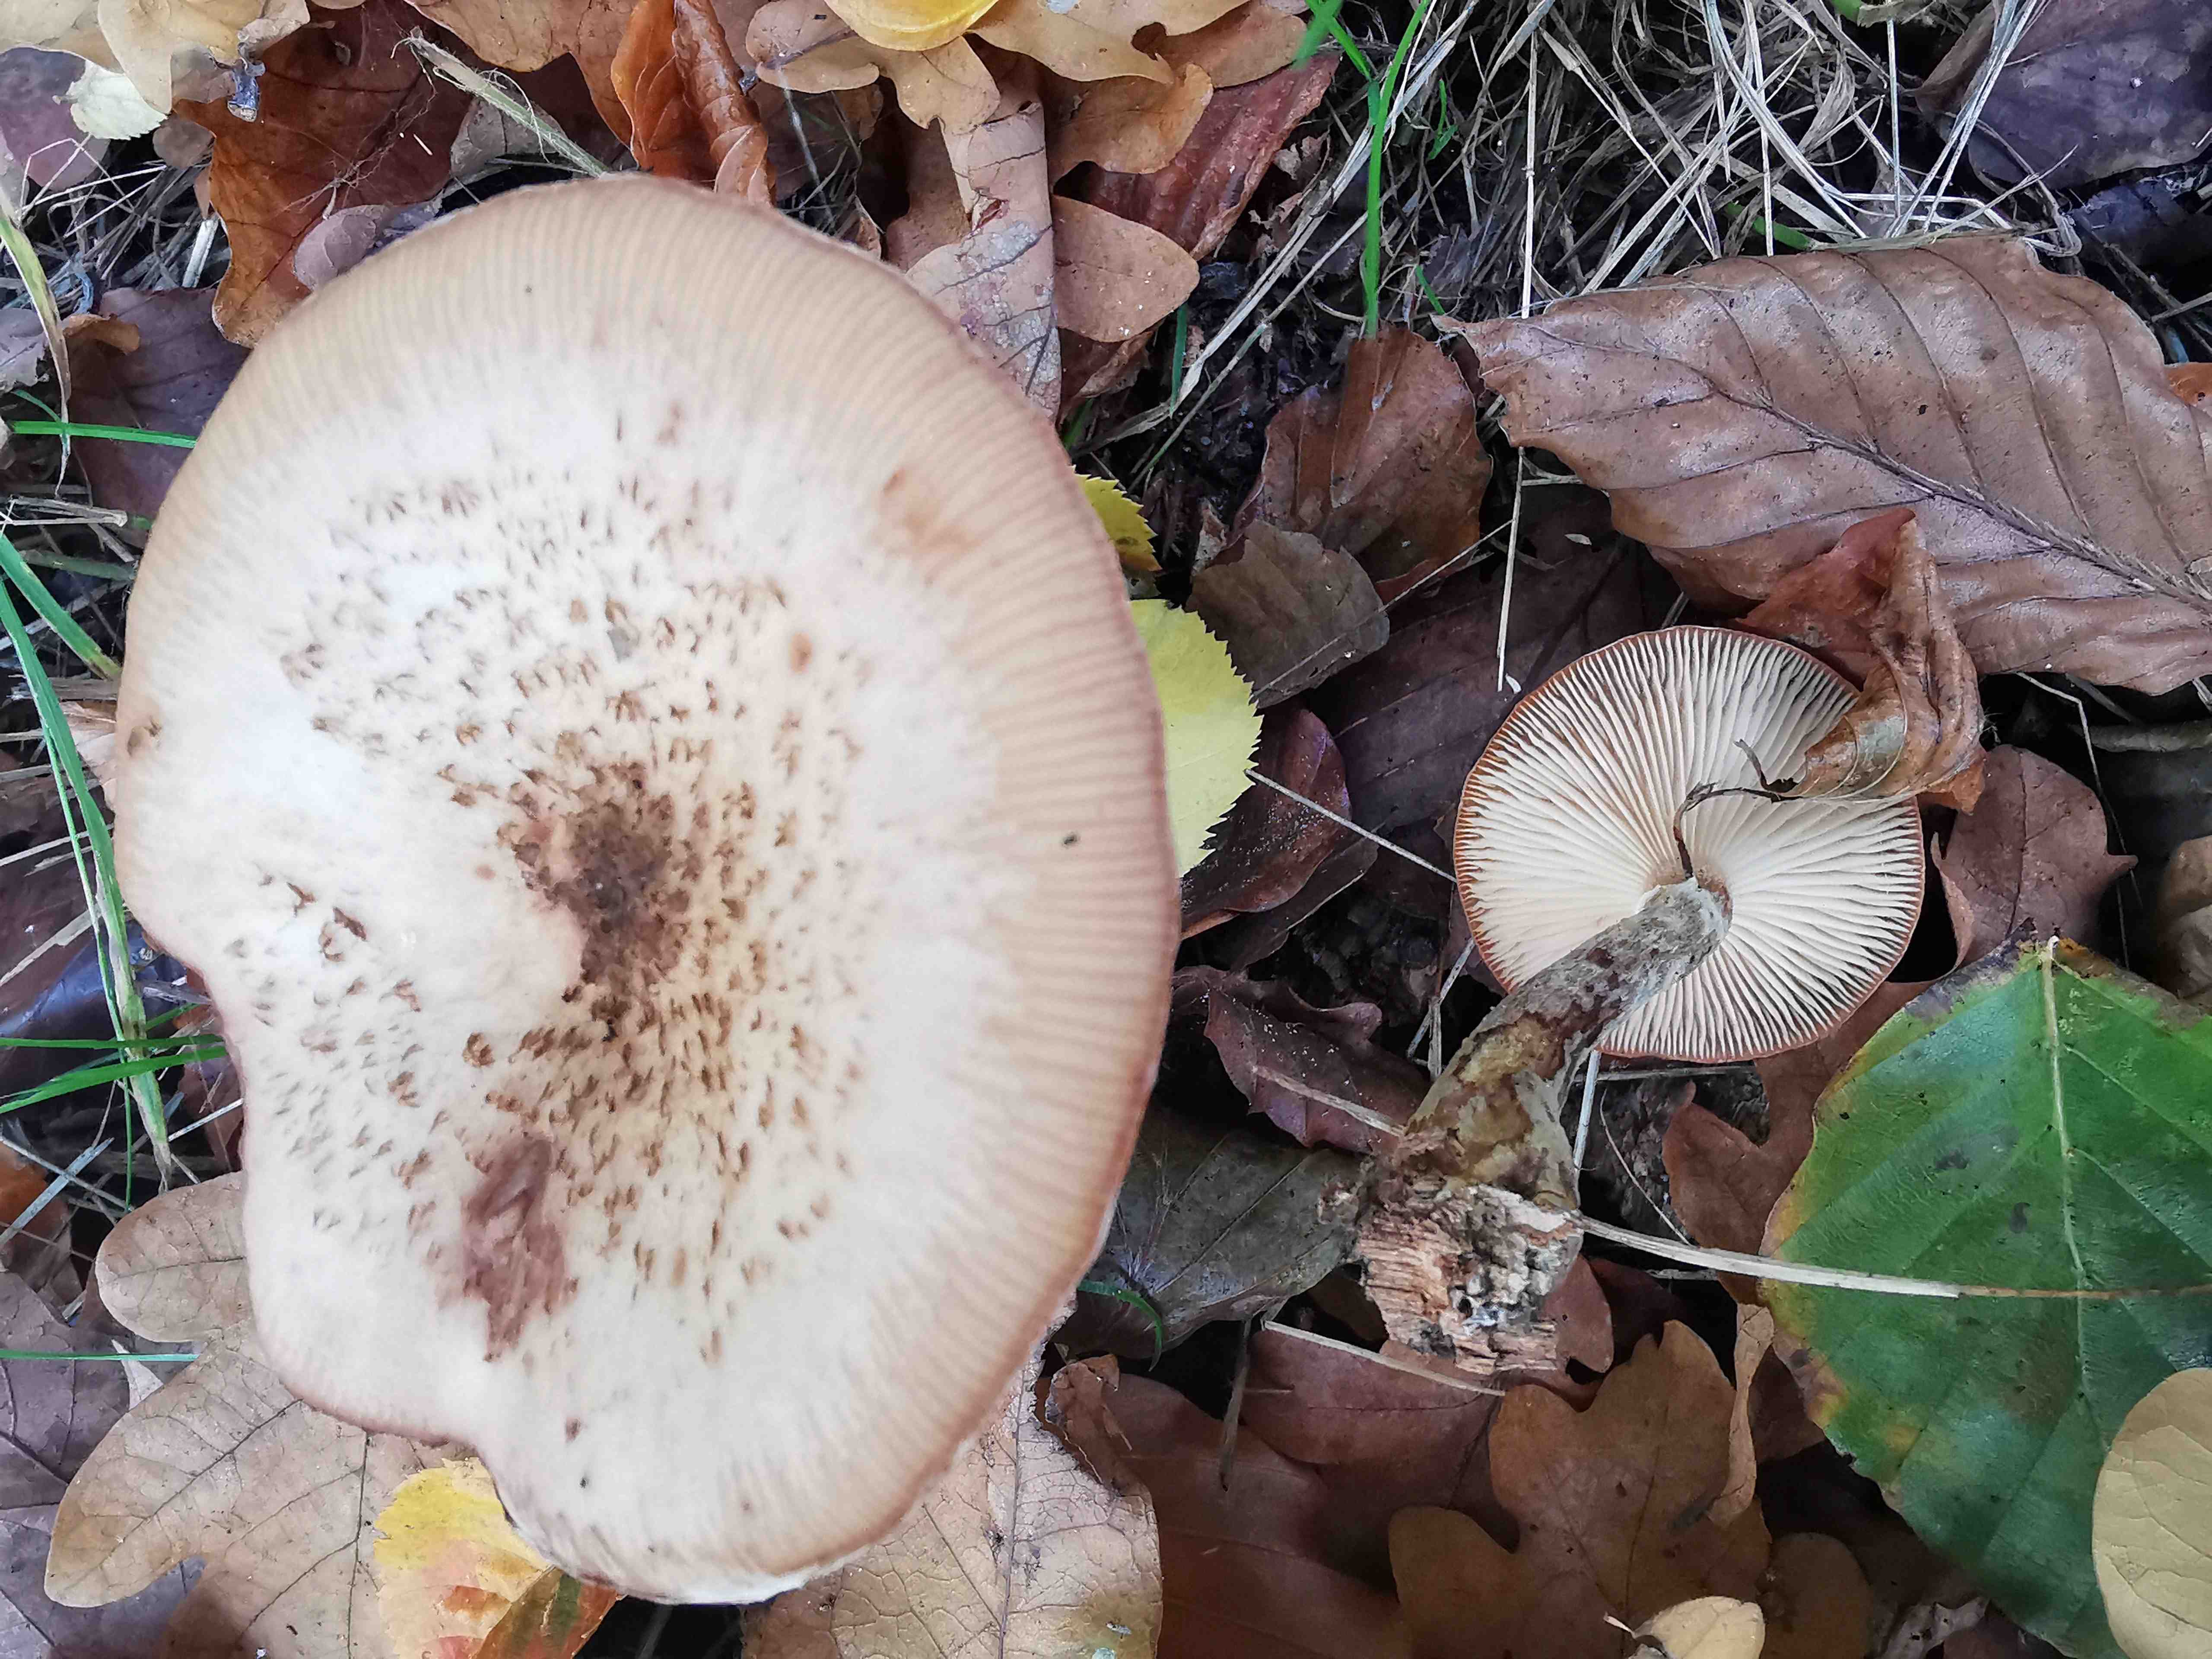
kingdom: Fungi
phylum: Basidiomycota
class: Agaricomycetes
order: Agaricales
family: Physalacriaceae
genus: Armillaria
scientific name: Armillaria lutea
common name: køllestokket honningsvamp
